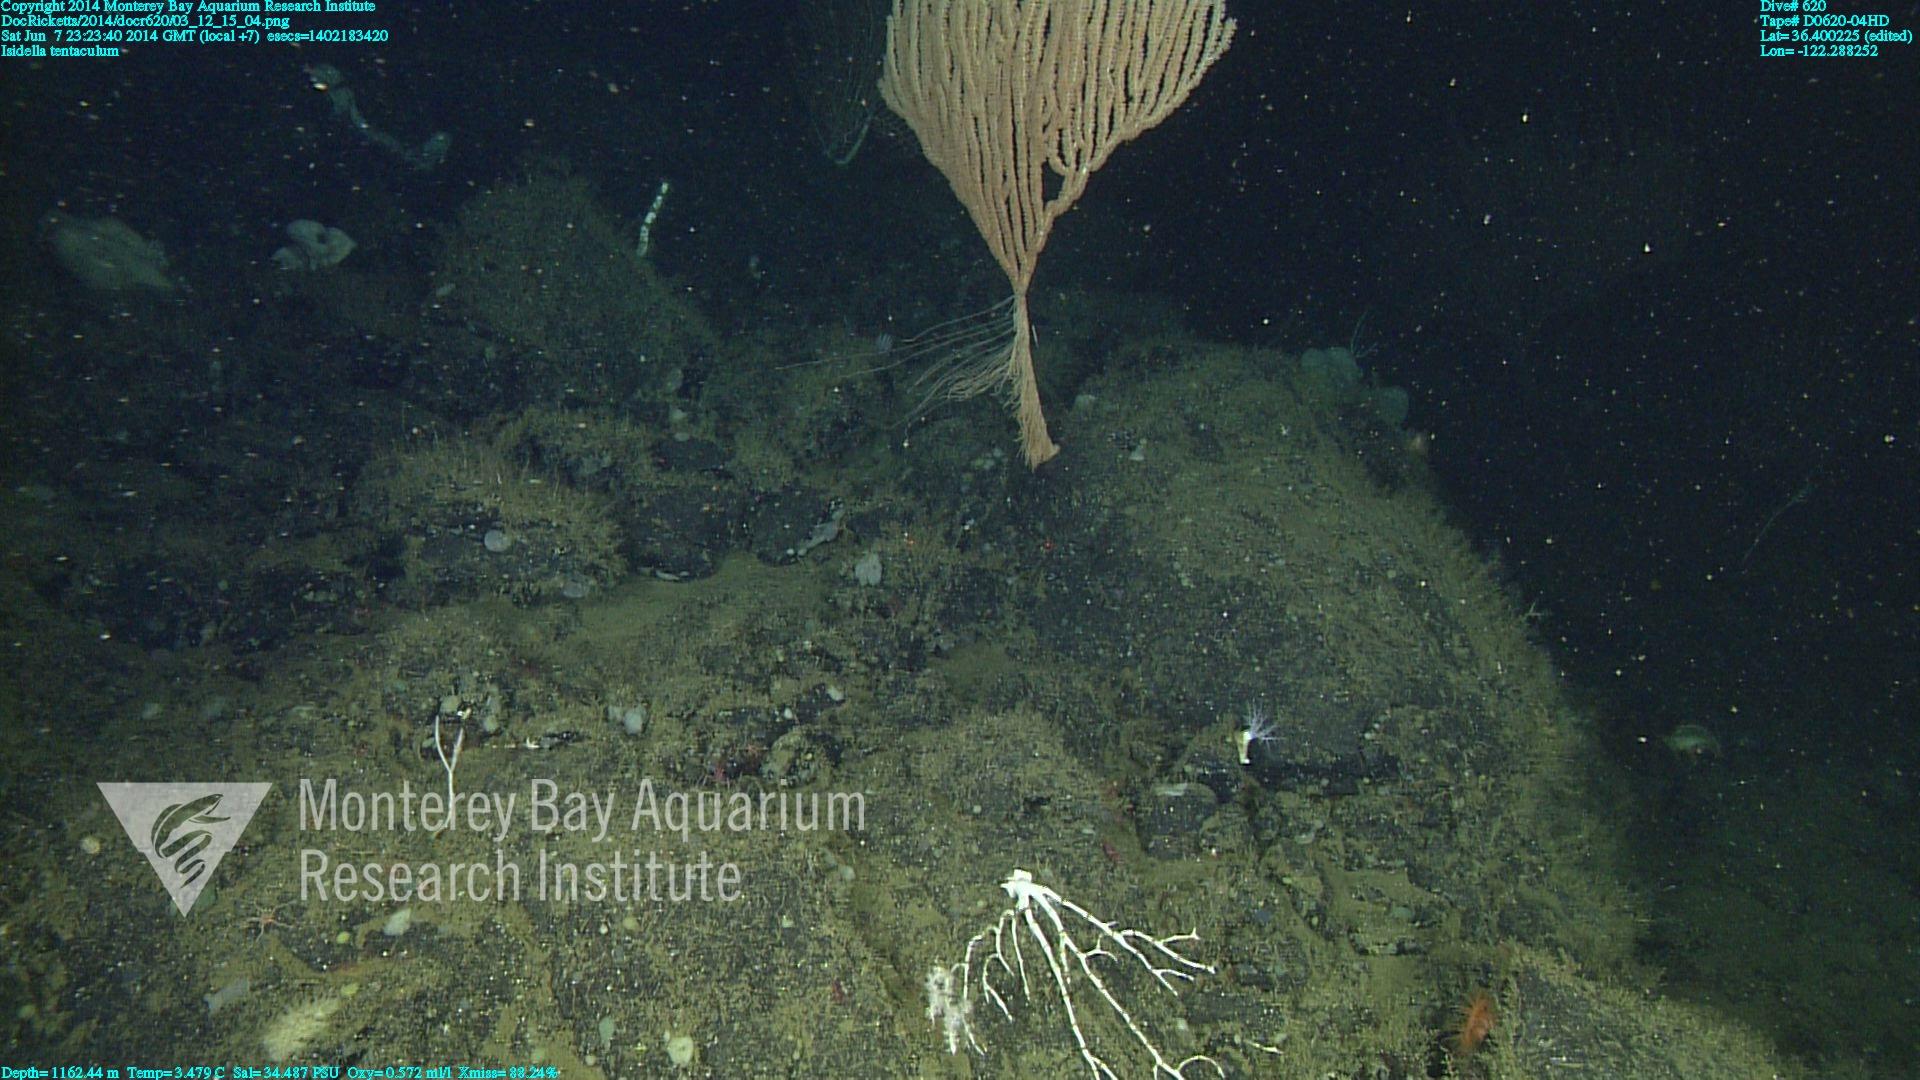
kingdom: Animalia
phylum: Cnidaria
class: Anthozoa
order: Scleralcyonacea
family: Keratoisididae
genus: Isidella
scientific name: Isidella tentaculum
